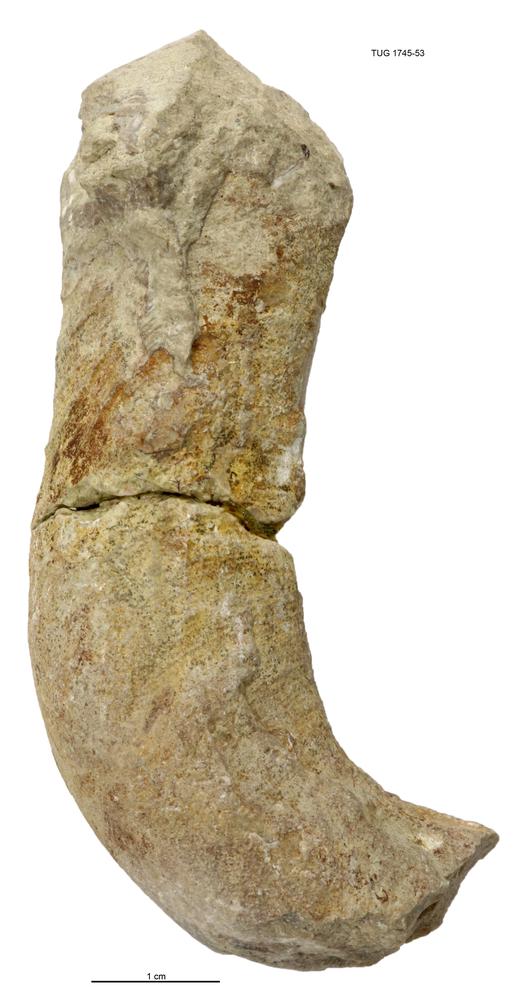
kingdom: Animalia
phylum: Mollusca
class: Cephalopoda
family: Trocholitidae
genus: Discoceras
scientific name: Discoceras antiquissimus
